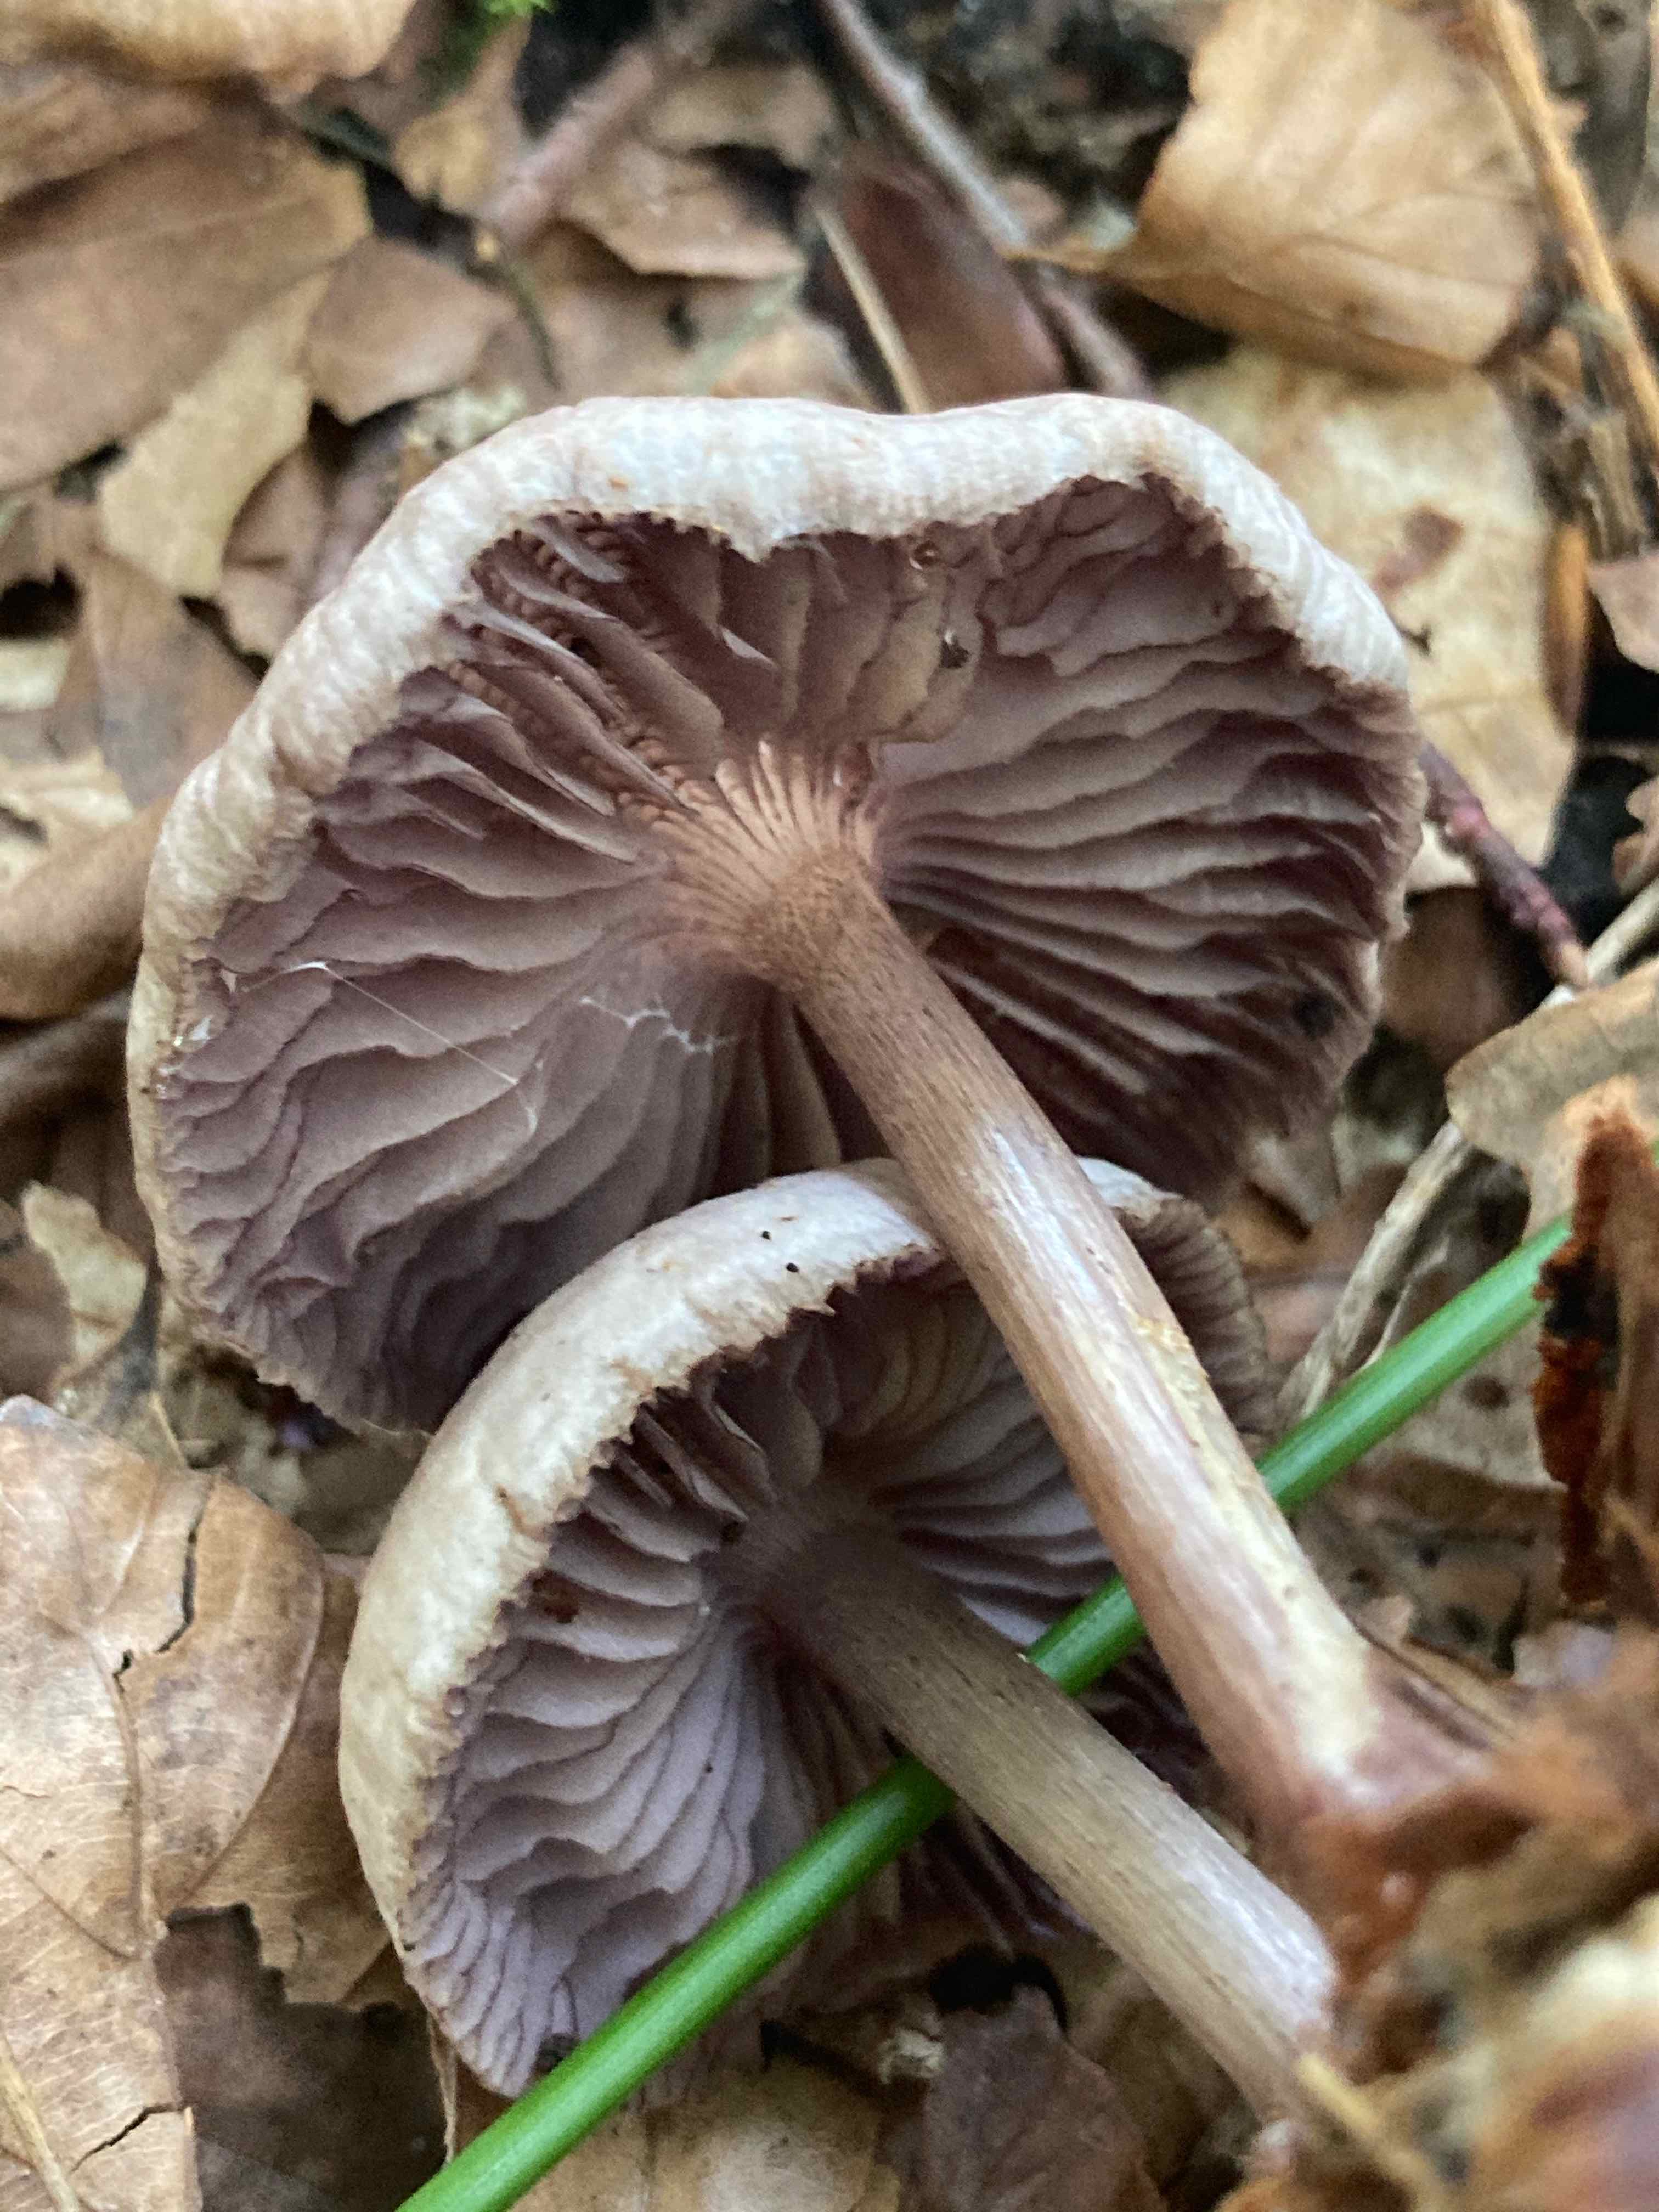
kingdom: Fungi
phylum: Basidiomycota
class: Agaricomycetes
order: Agaricales
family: Mycenaceae
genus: Mycena
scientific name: Mycena pelianthina
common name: mørkbladet huesvamp
